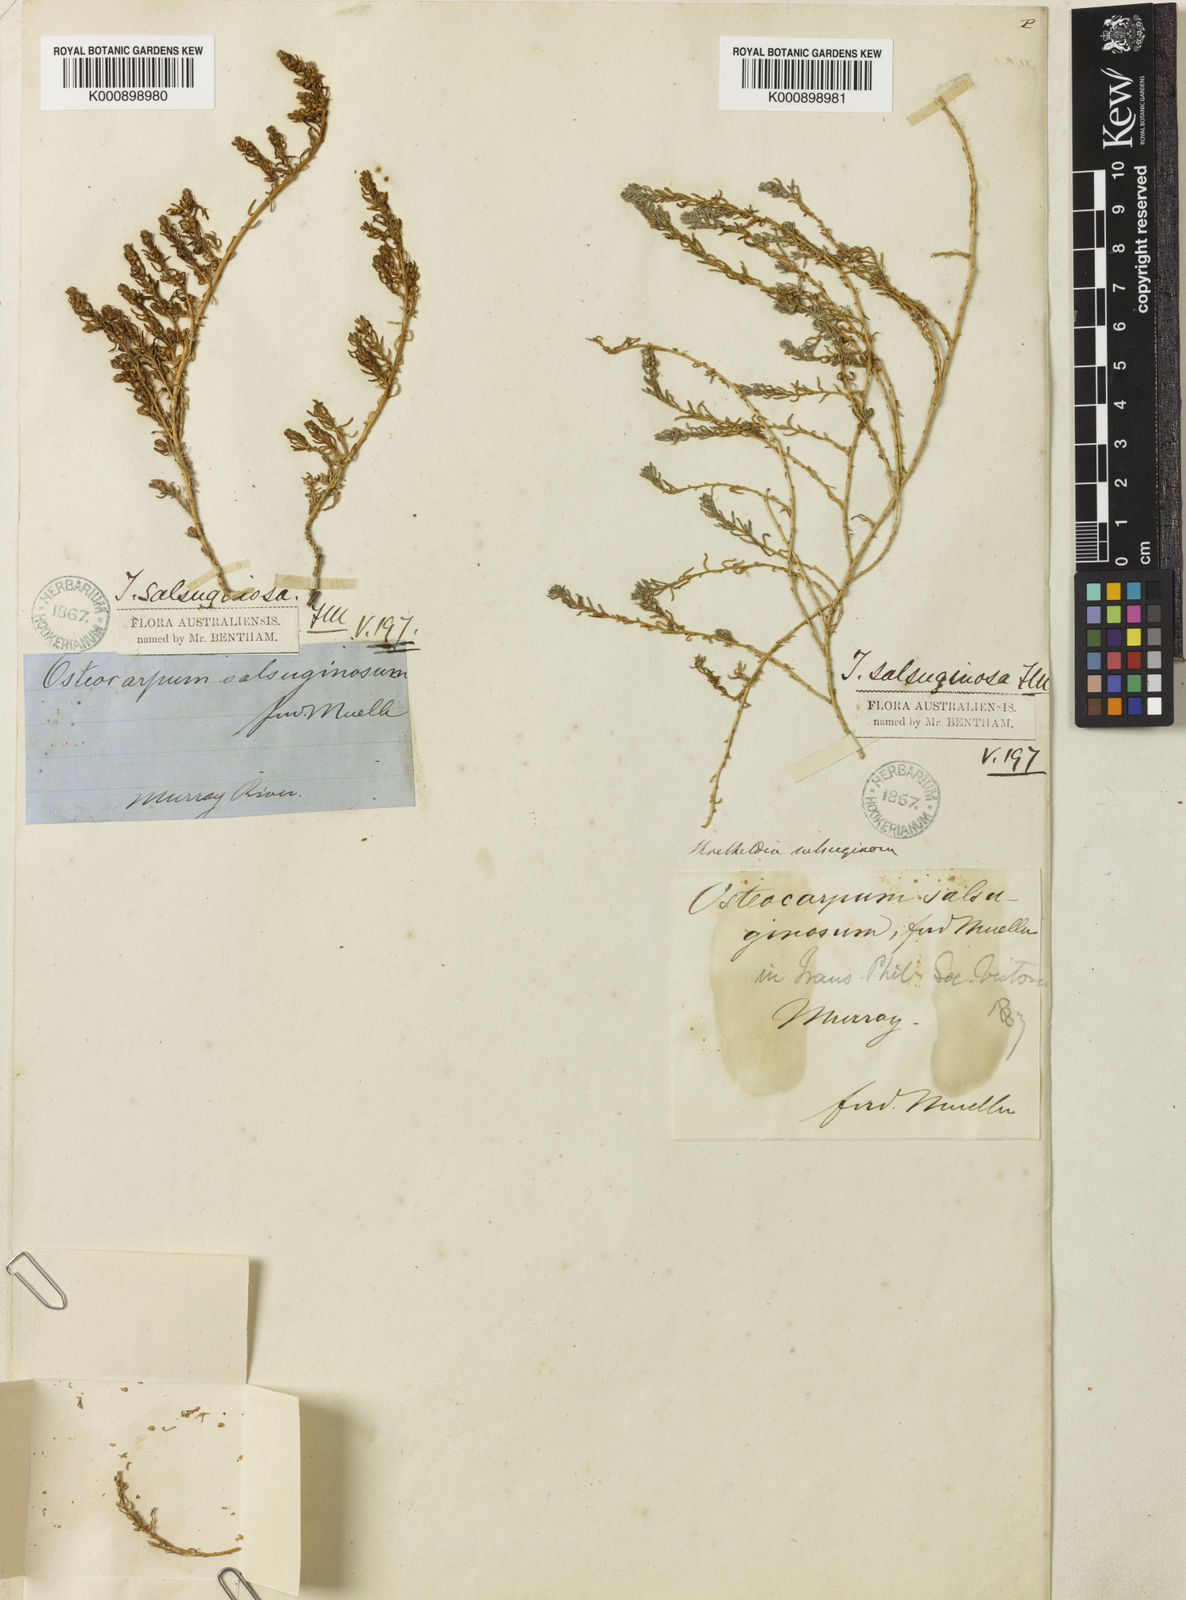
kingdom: Plantae
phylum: Tracheophyta
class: Magnoliopsida
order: Caryophyllales
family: Amaranthaceae
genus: Osteocarpum
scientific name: Osteocarpum salsuginosum
